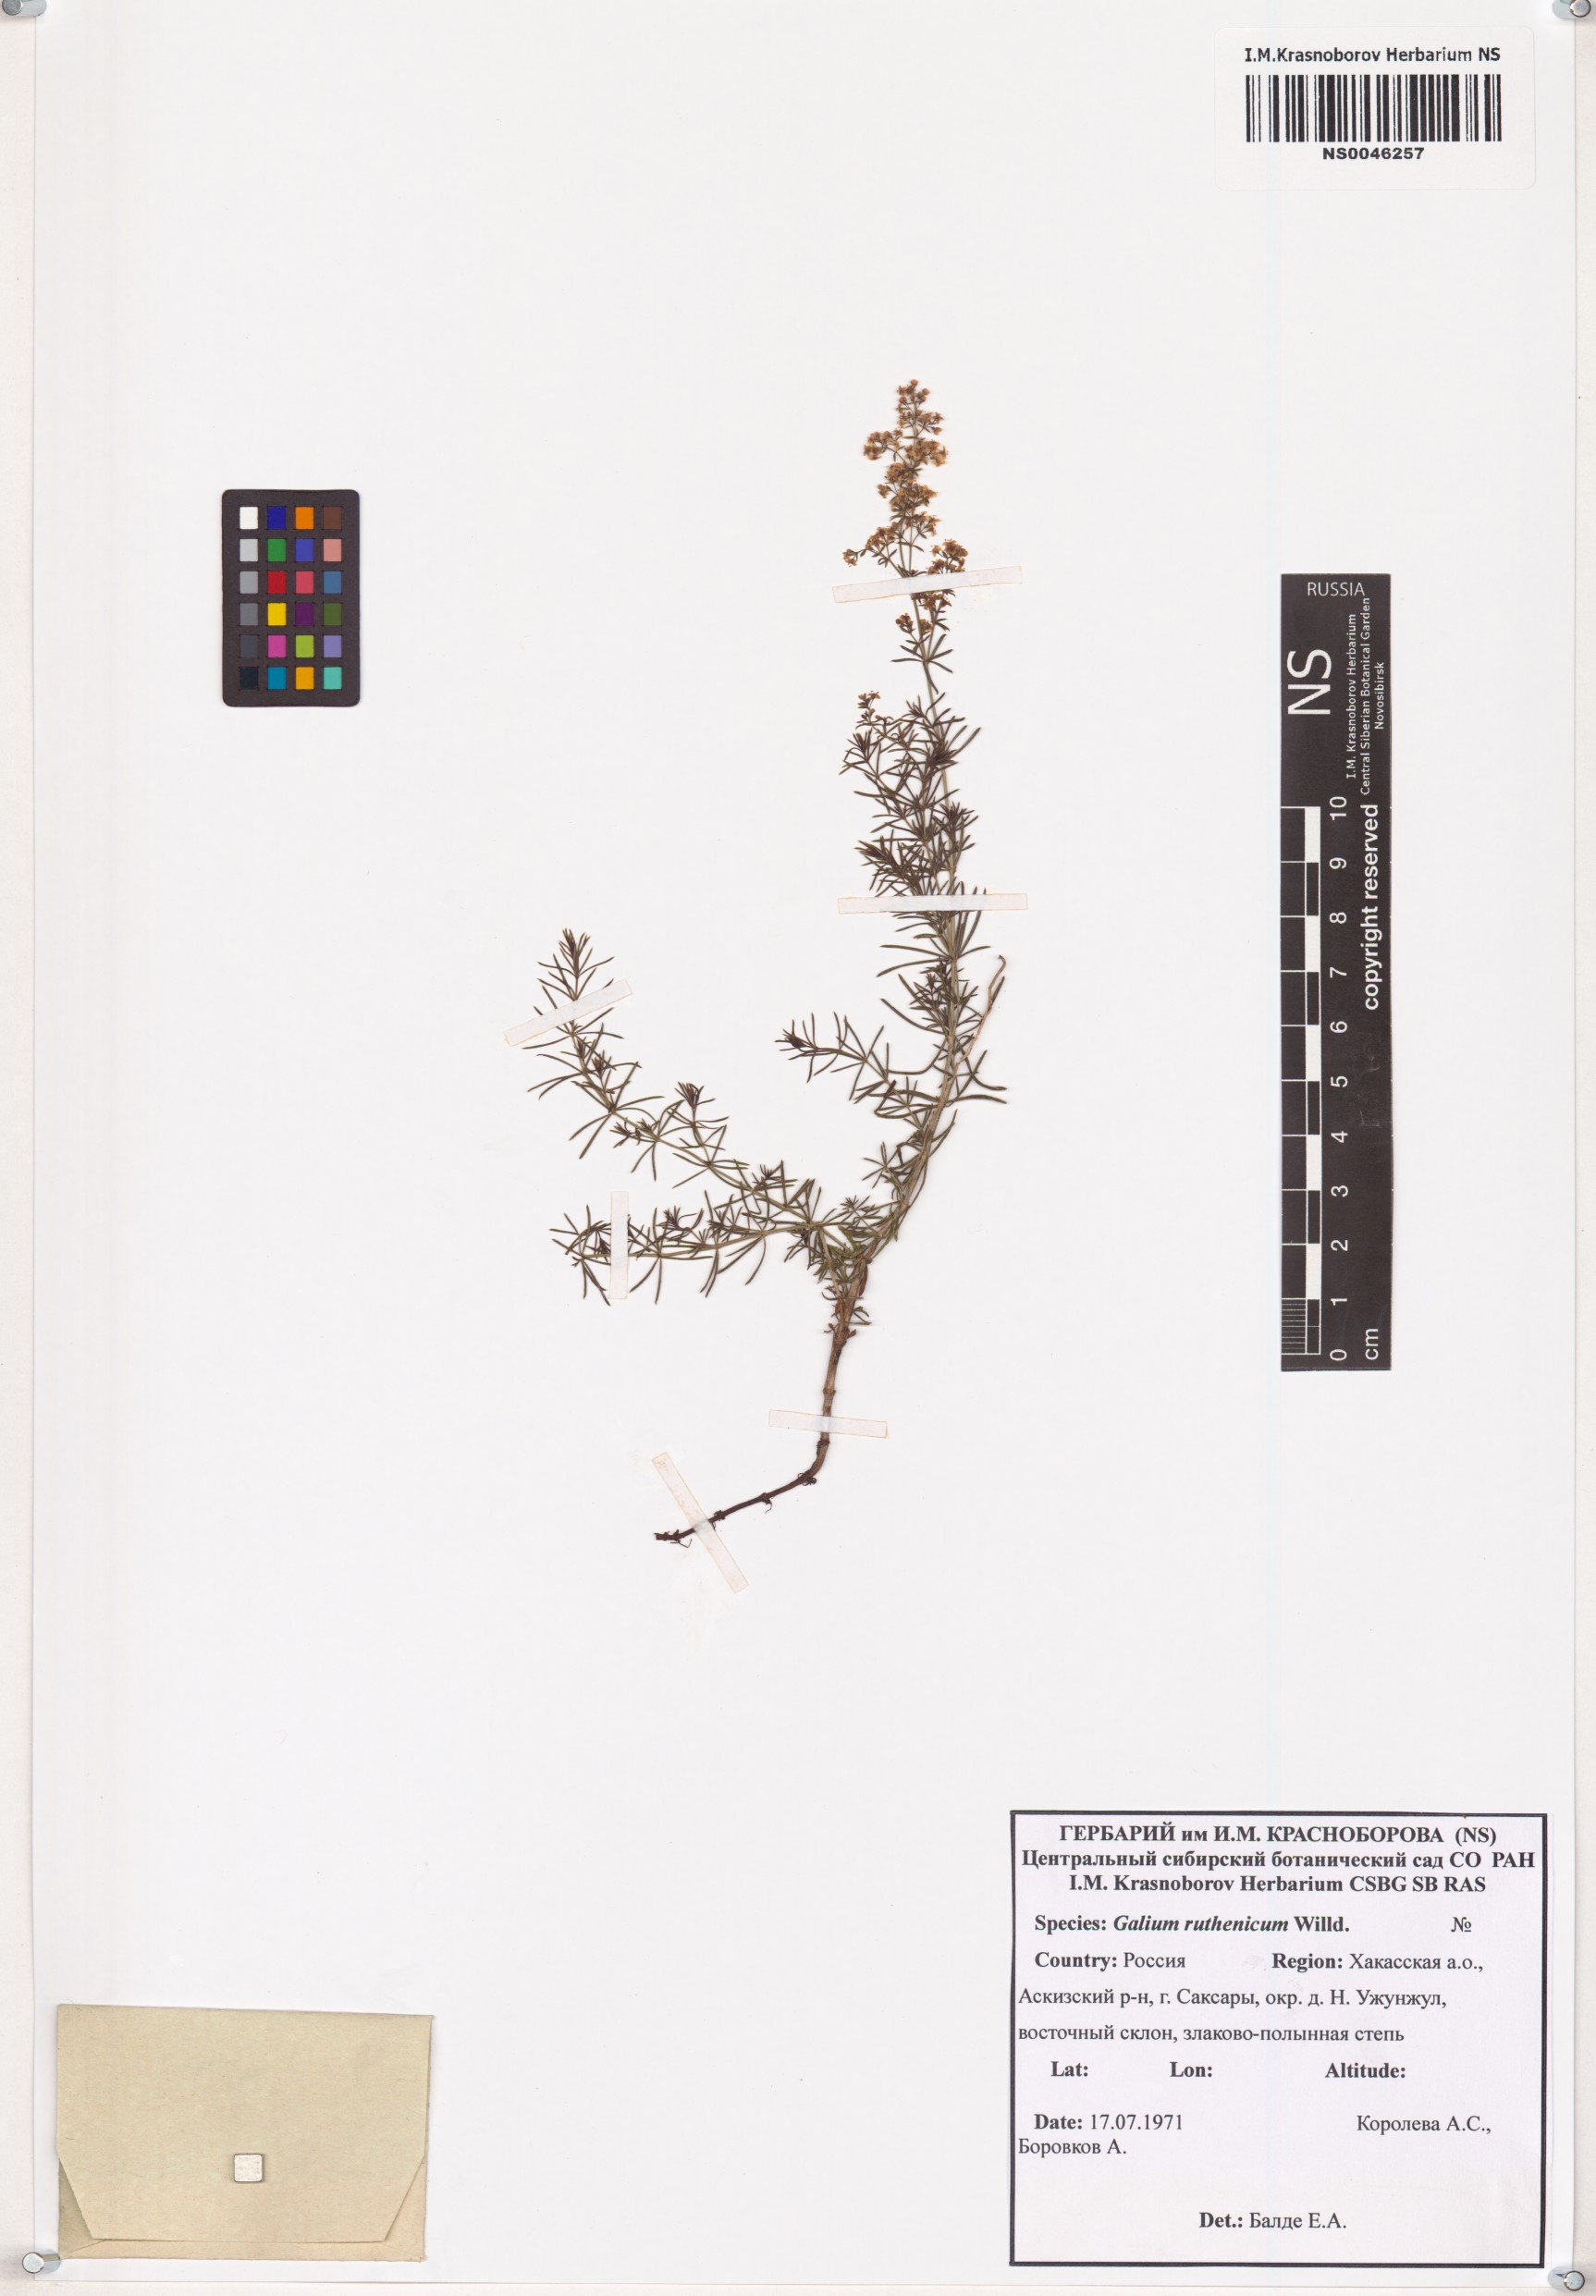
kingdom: Plantae
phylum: Tracheophyta
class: Magnoliopsida
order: Gentianales
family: Rubiaceae
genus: Galium
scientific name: Galium verum
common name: Lady's bedstraw
